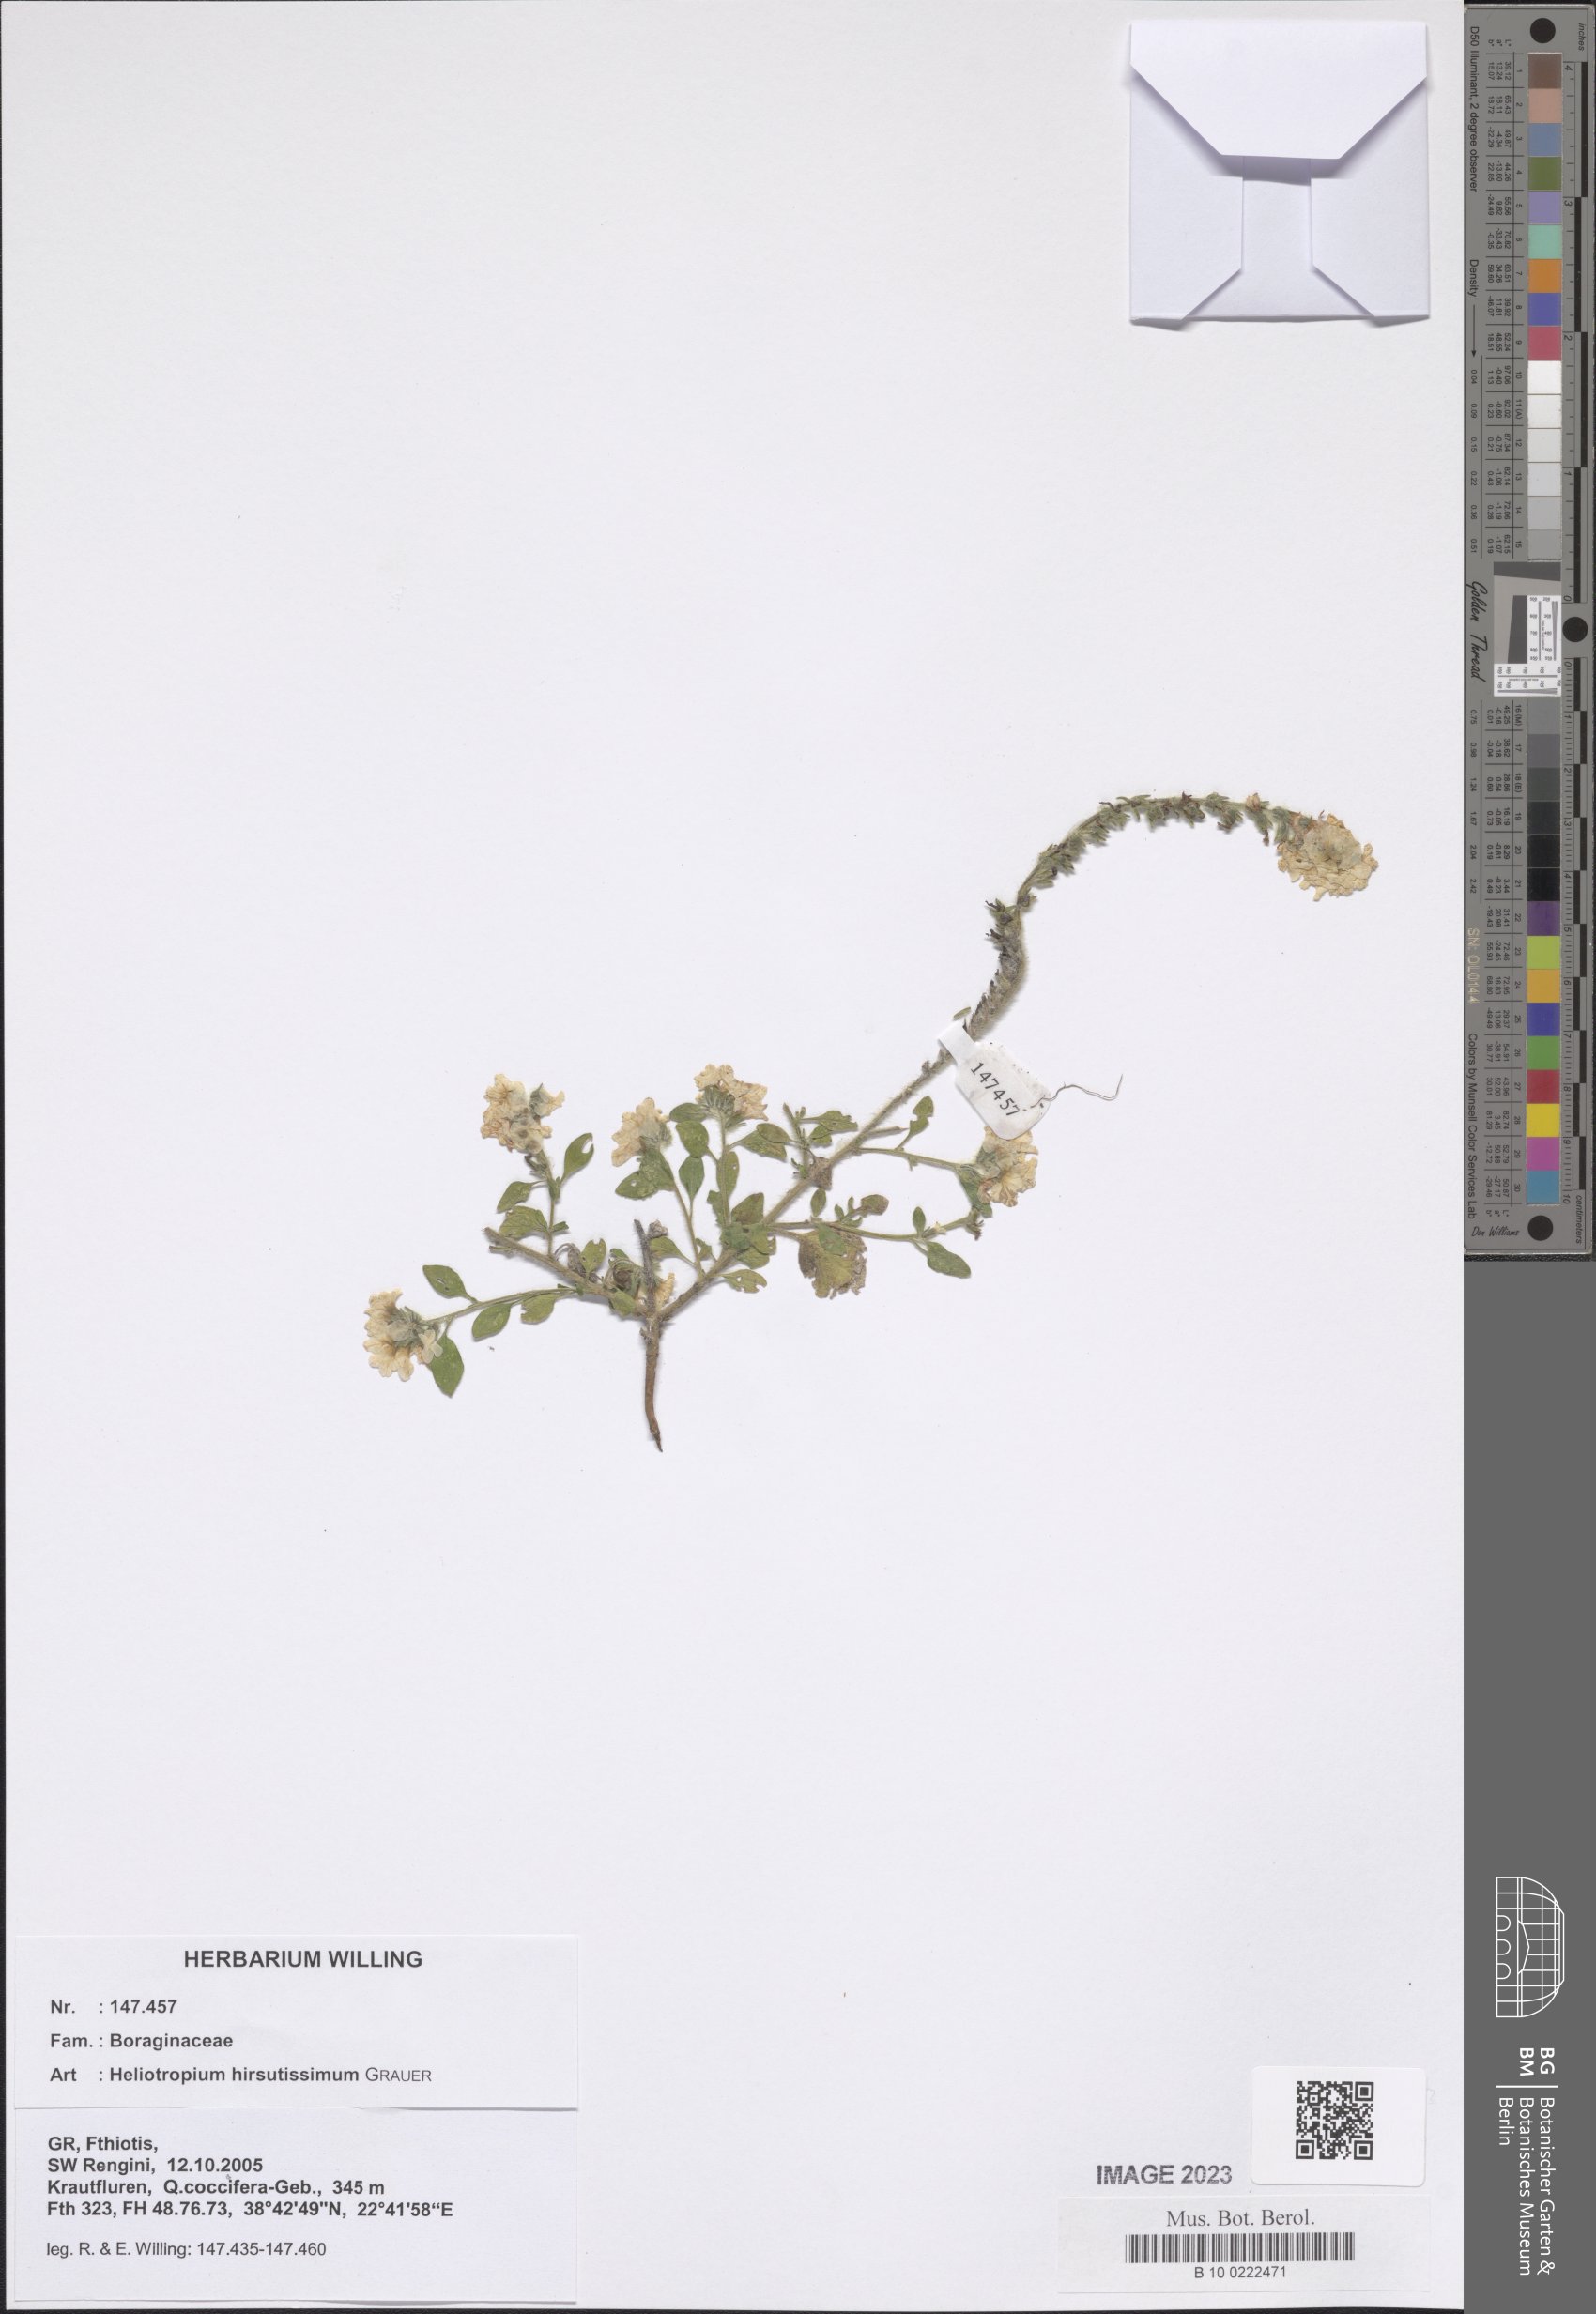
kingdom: Plantae
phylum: Tracheophyta
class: Magnoliopsida
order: Boraginales
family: Heliotropiaceae
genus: Heliotropium
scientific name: Heliotropium hirsutissimum
